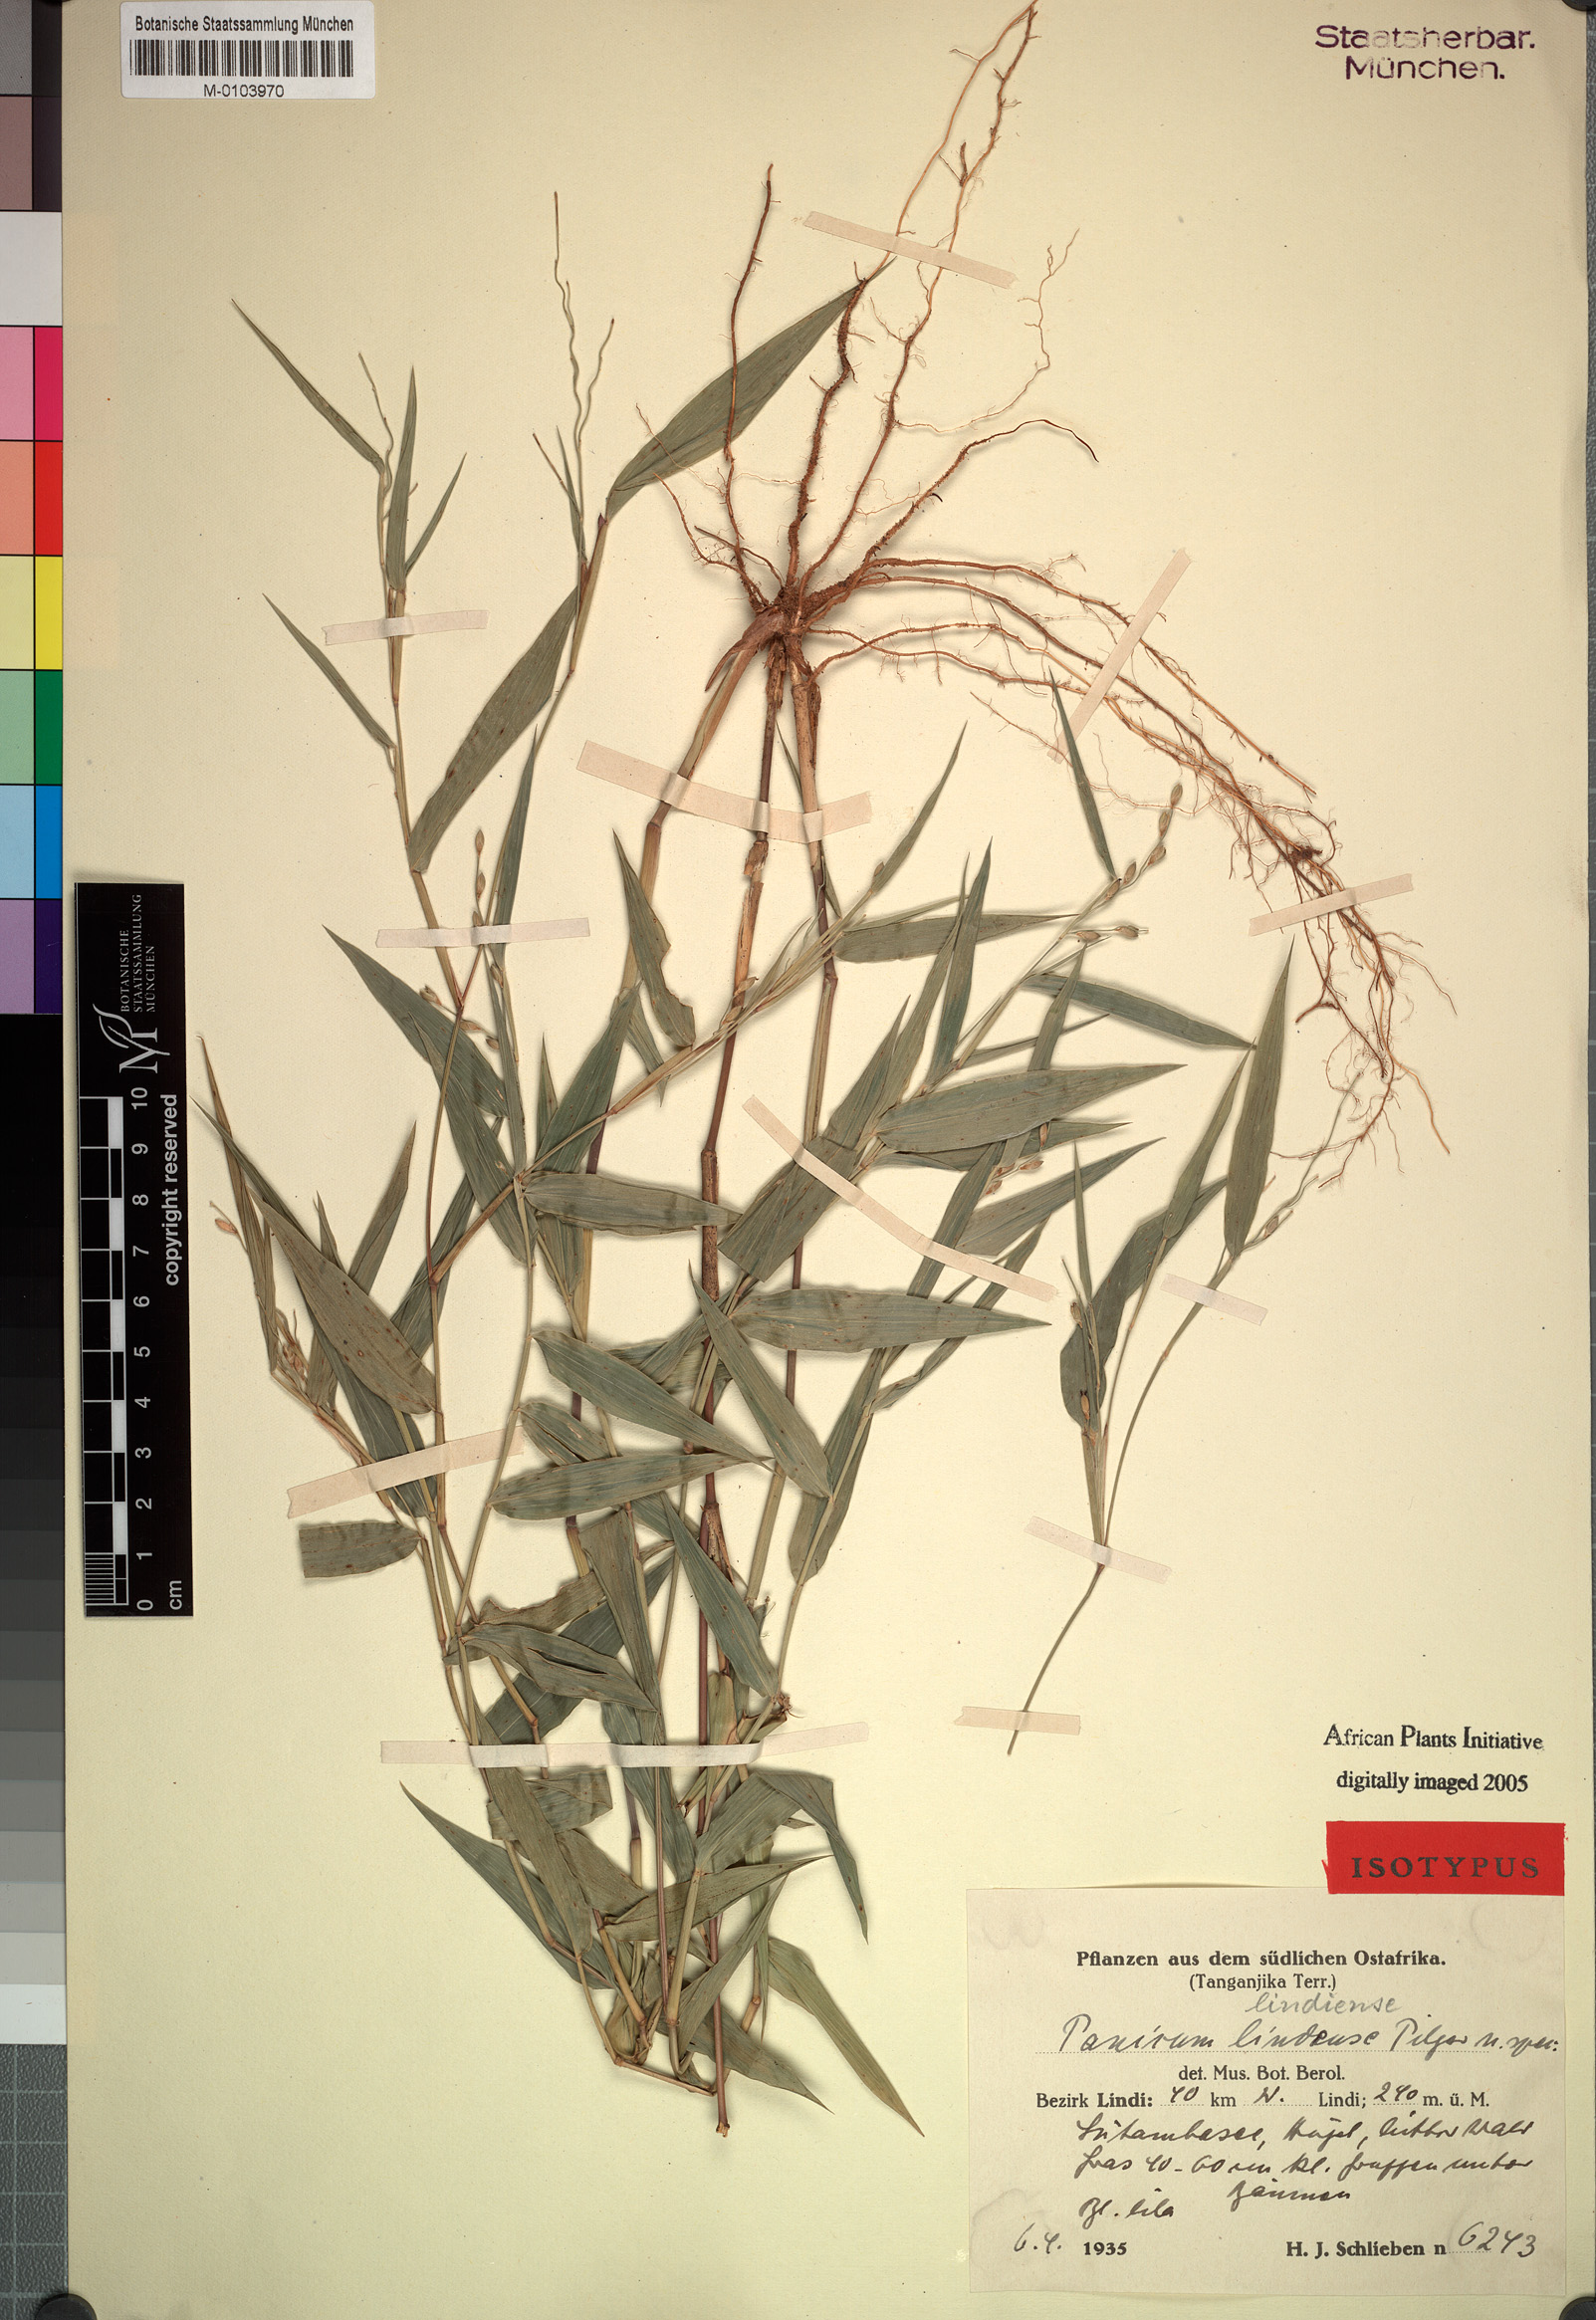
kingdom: Plantae
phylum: Tracheophyta
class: Liliopsida
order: Poales
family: Poaceae
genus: Urochloa
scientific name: Urochloa Brachiaria lindiensis
